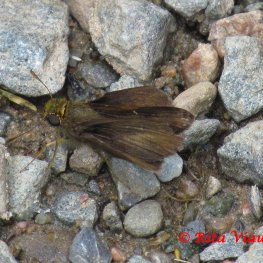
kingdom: Animalia
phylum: Arthropoda
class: Insecta
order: Lepidoptera
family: Hesperiidae
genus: Euphyes
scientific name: Euphyes vestris
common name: Dun Skipper
